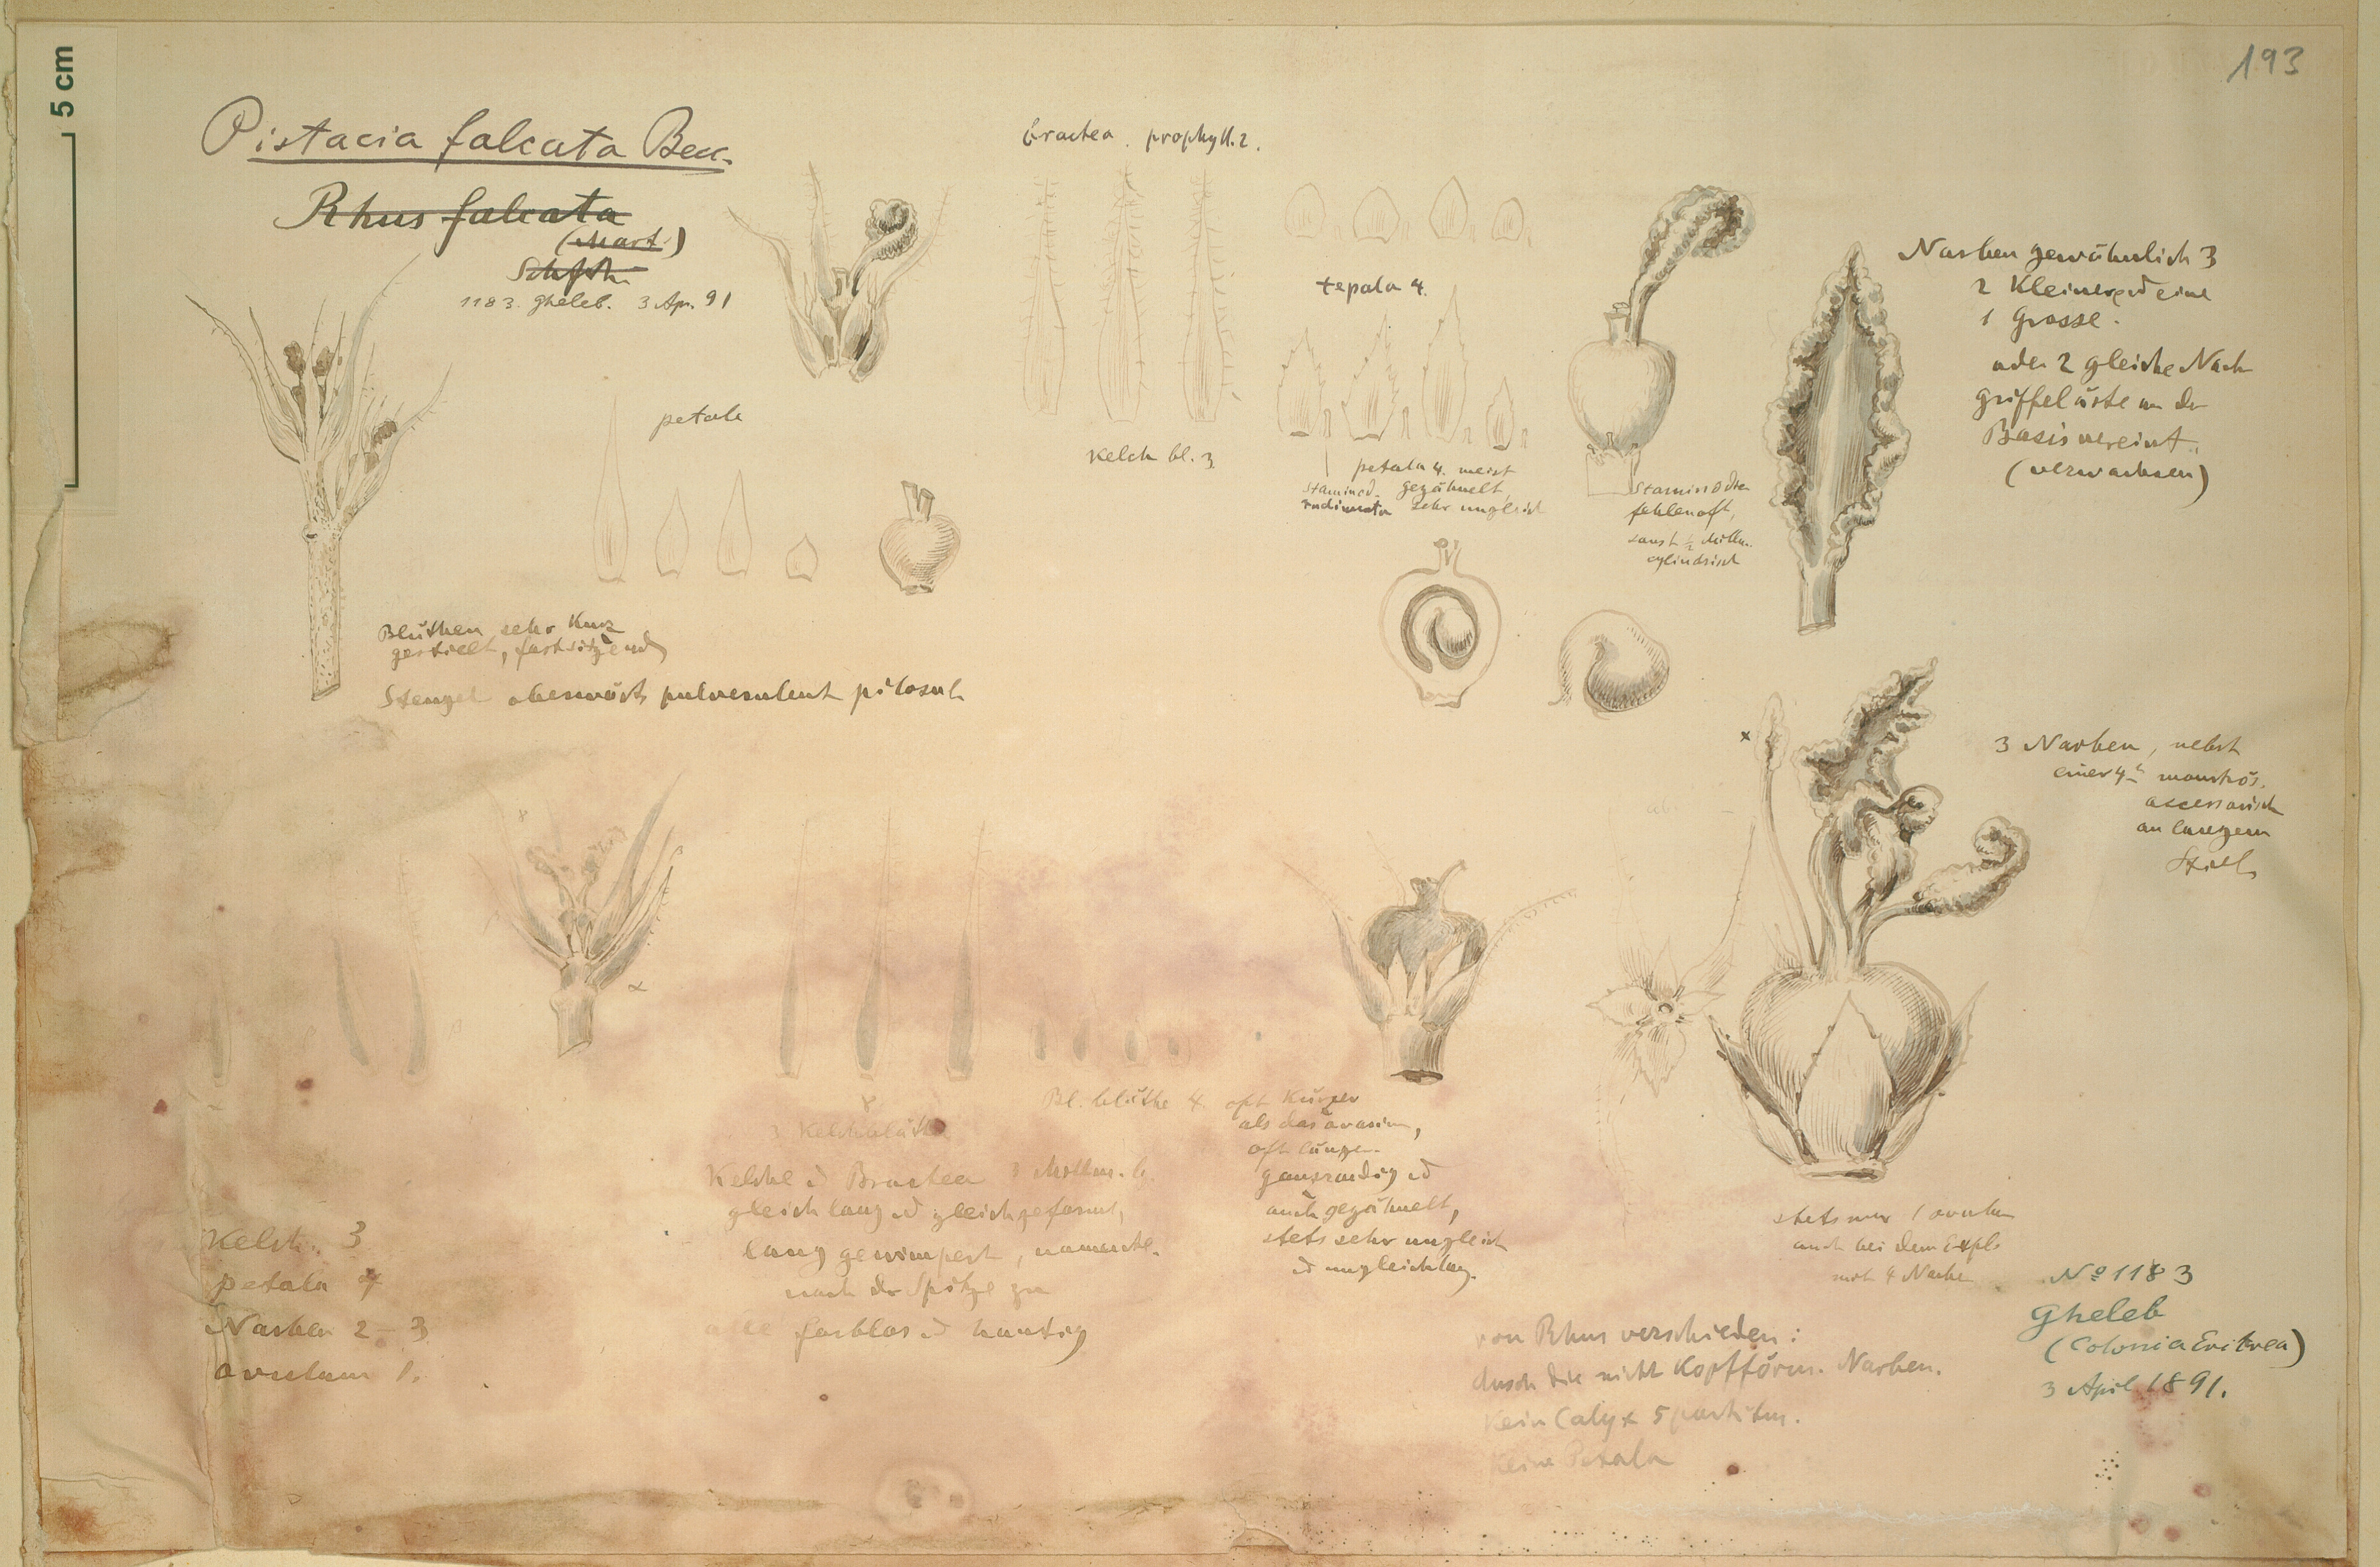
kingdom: Plantae
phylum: Tracheophyta
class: Magnoliopsida
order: Sapindales
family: Anacardiaceae
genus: Pistacia
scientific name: Pistacia falcata
